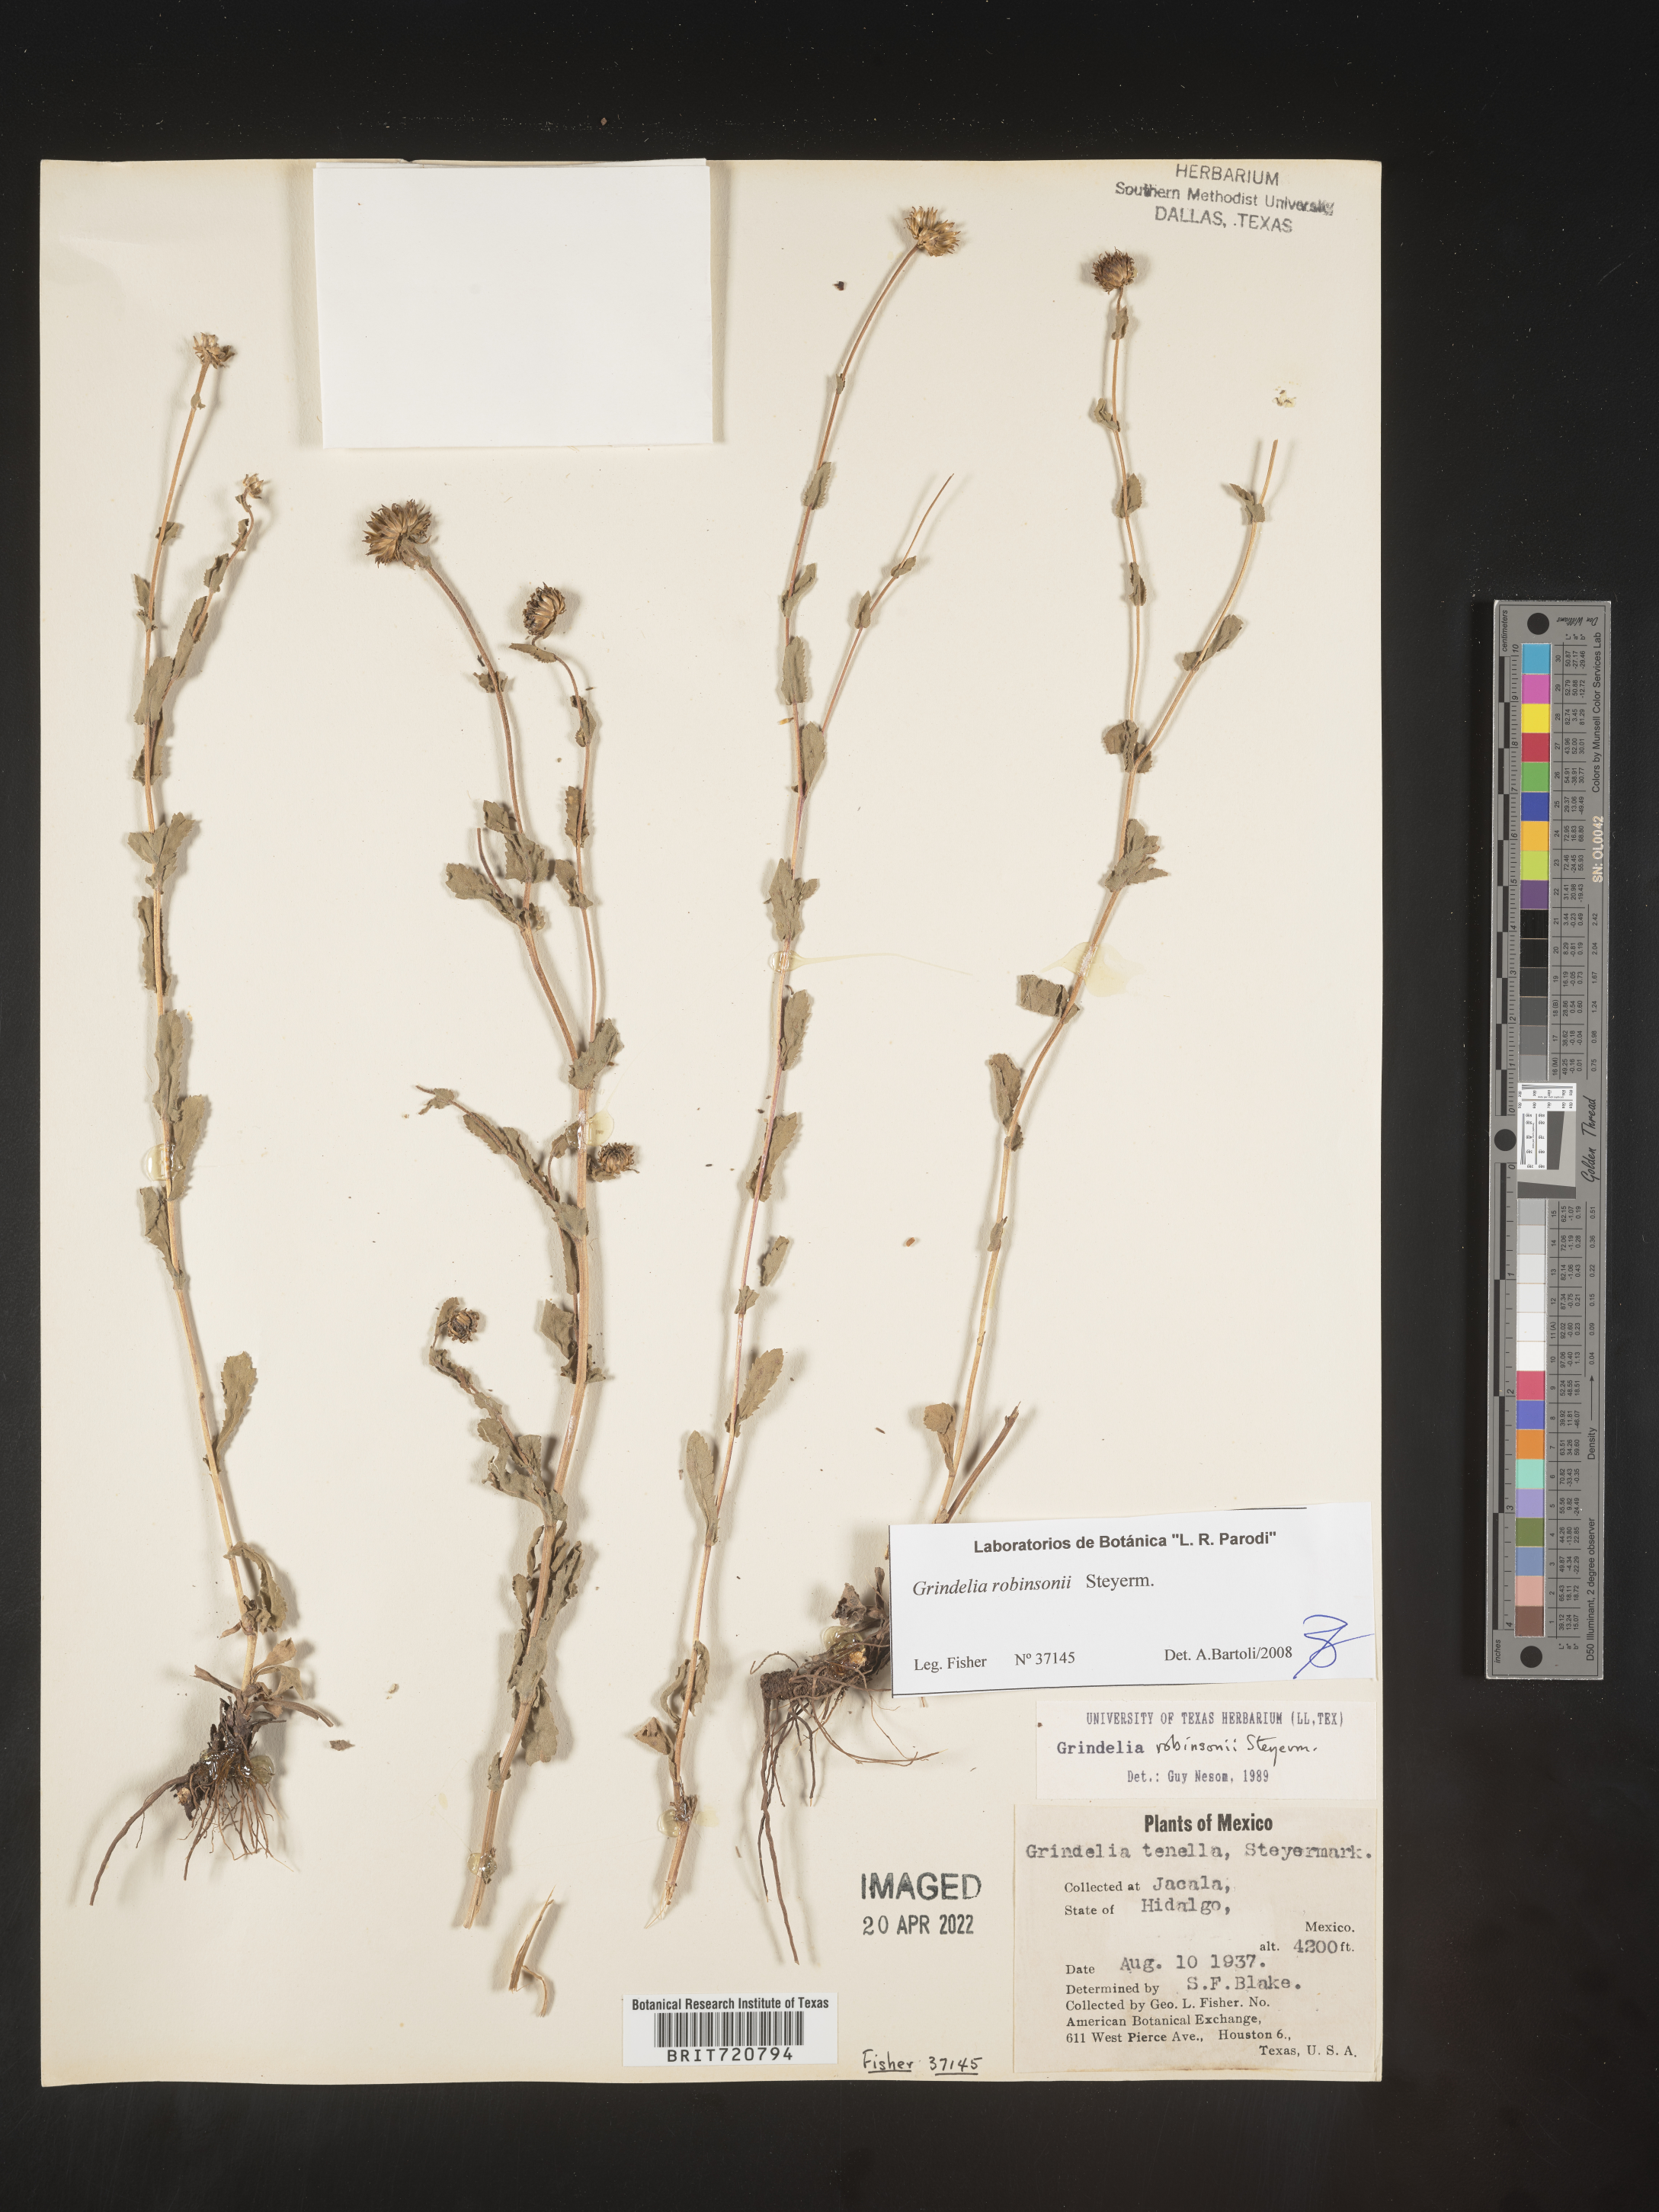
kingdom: Plantae
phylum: Tracheophyta
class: Magnoliopsida
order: Asterales
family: Asteraceae
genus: Grindelia
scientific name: Grindelia
